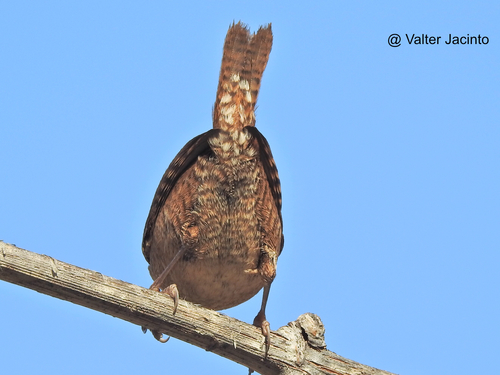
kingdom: Animalia
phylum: Chordata
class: Aves
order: Passeriformes
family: Troglodytidae
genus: Troglodytes
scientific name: Troglodytes troglodytes
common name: Eurasian wren
